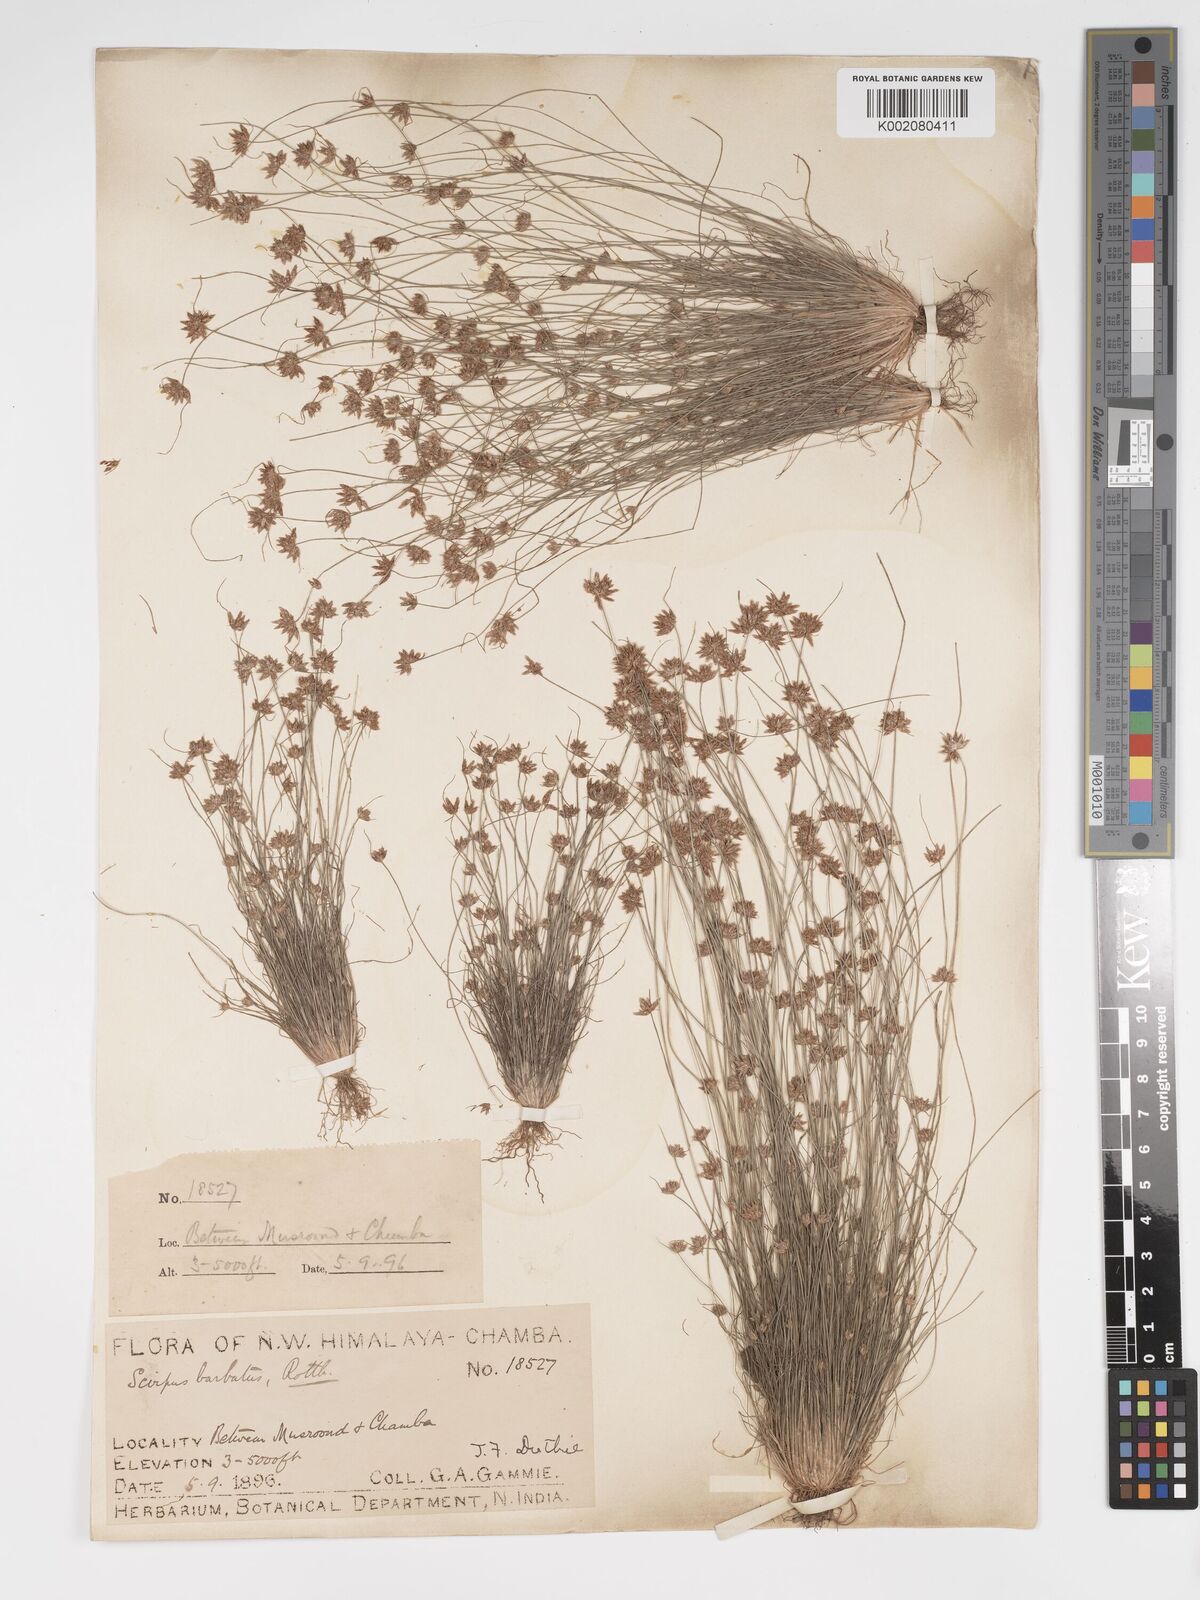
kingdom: Plantae
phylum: Tracheophyta
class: Liliopsida
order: Poales
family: Cyperaceae
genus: Bulbostylis
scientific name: Bulbostylis barbata
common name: Watergrass
